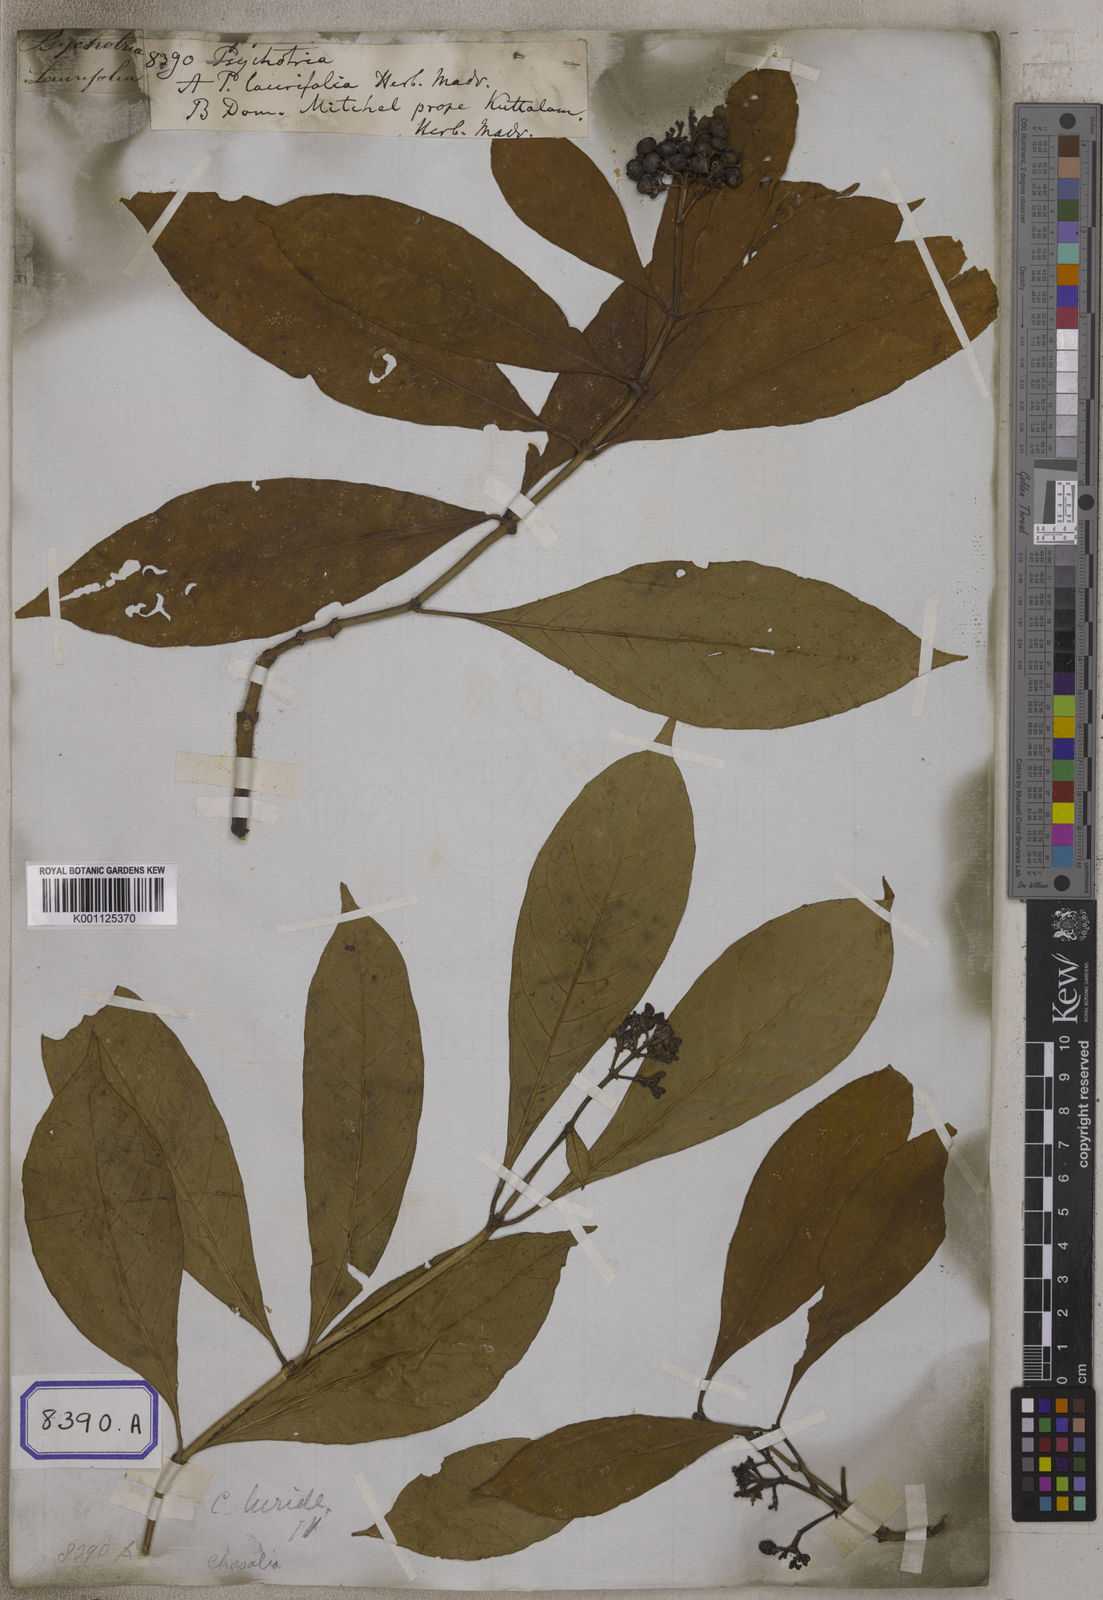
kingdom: Plantae
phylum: Tracheophyta
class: Magnoliopsida
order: Gentianales
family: Rubiaceae
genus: Psychotria
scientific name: Psychotria
